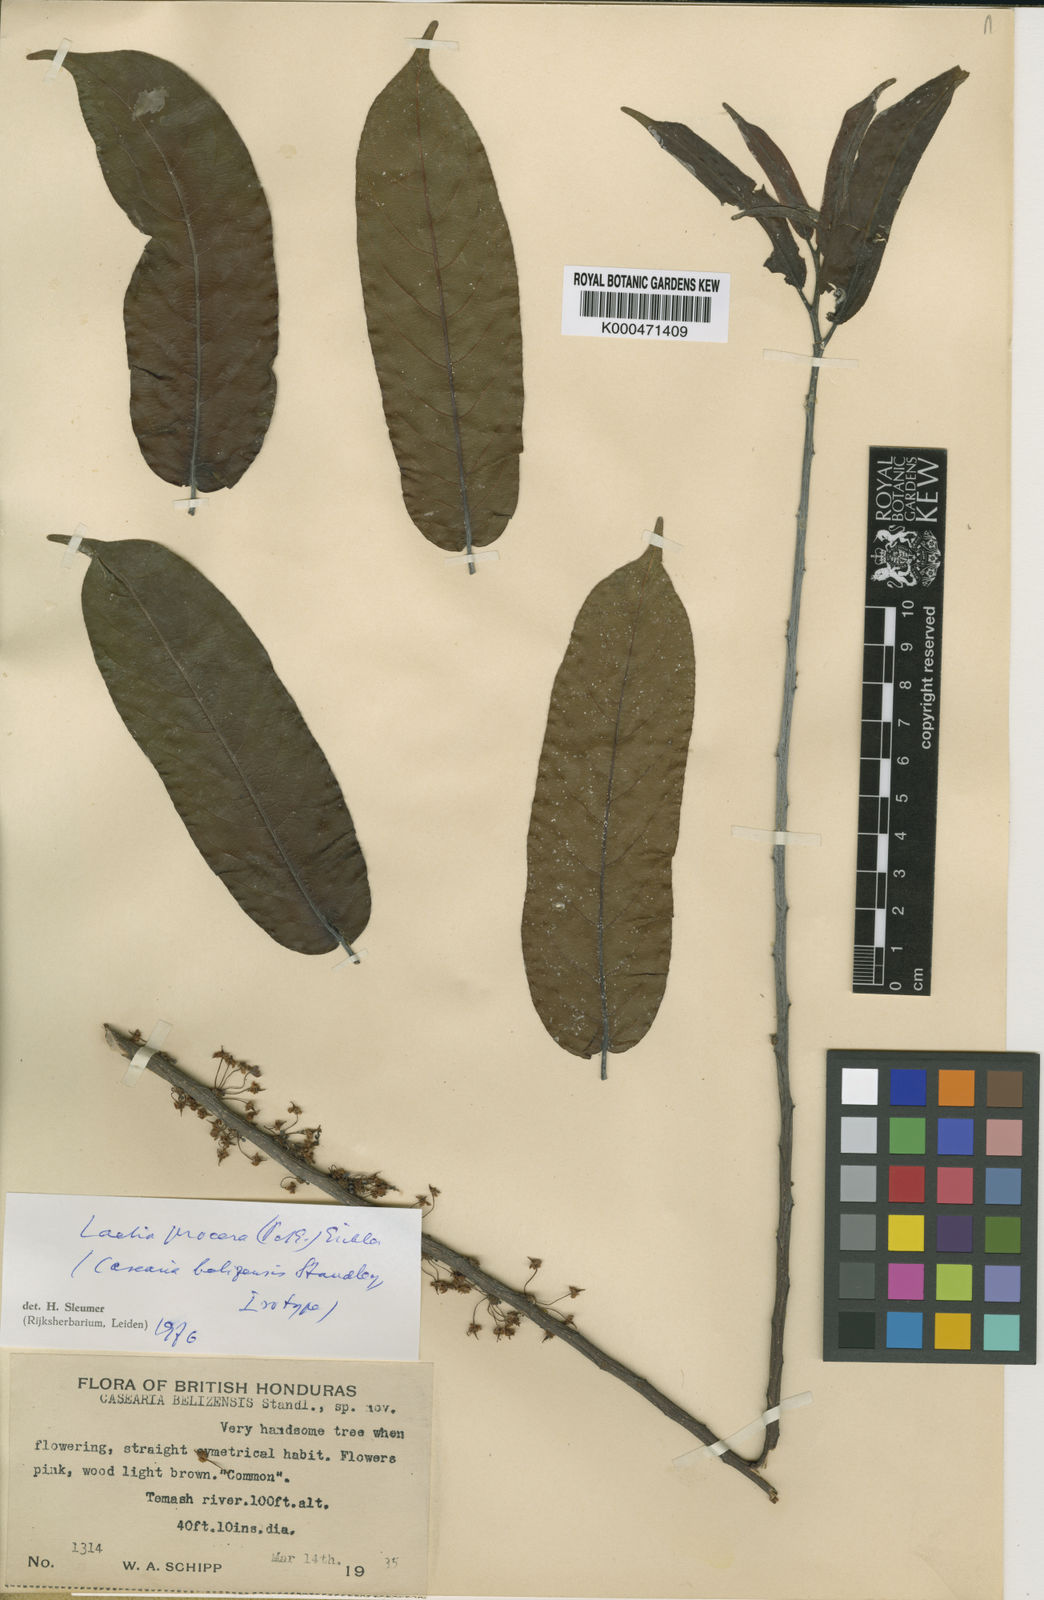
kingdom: Plantae
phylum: Tracheophyta
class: Magnoliopsida
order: Malpighiales
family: Salicaceae
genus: Casearia
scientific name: Casearia bicolor
